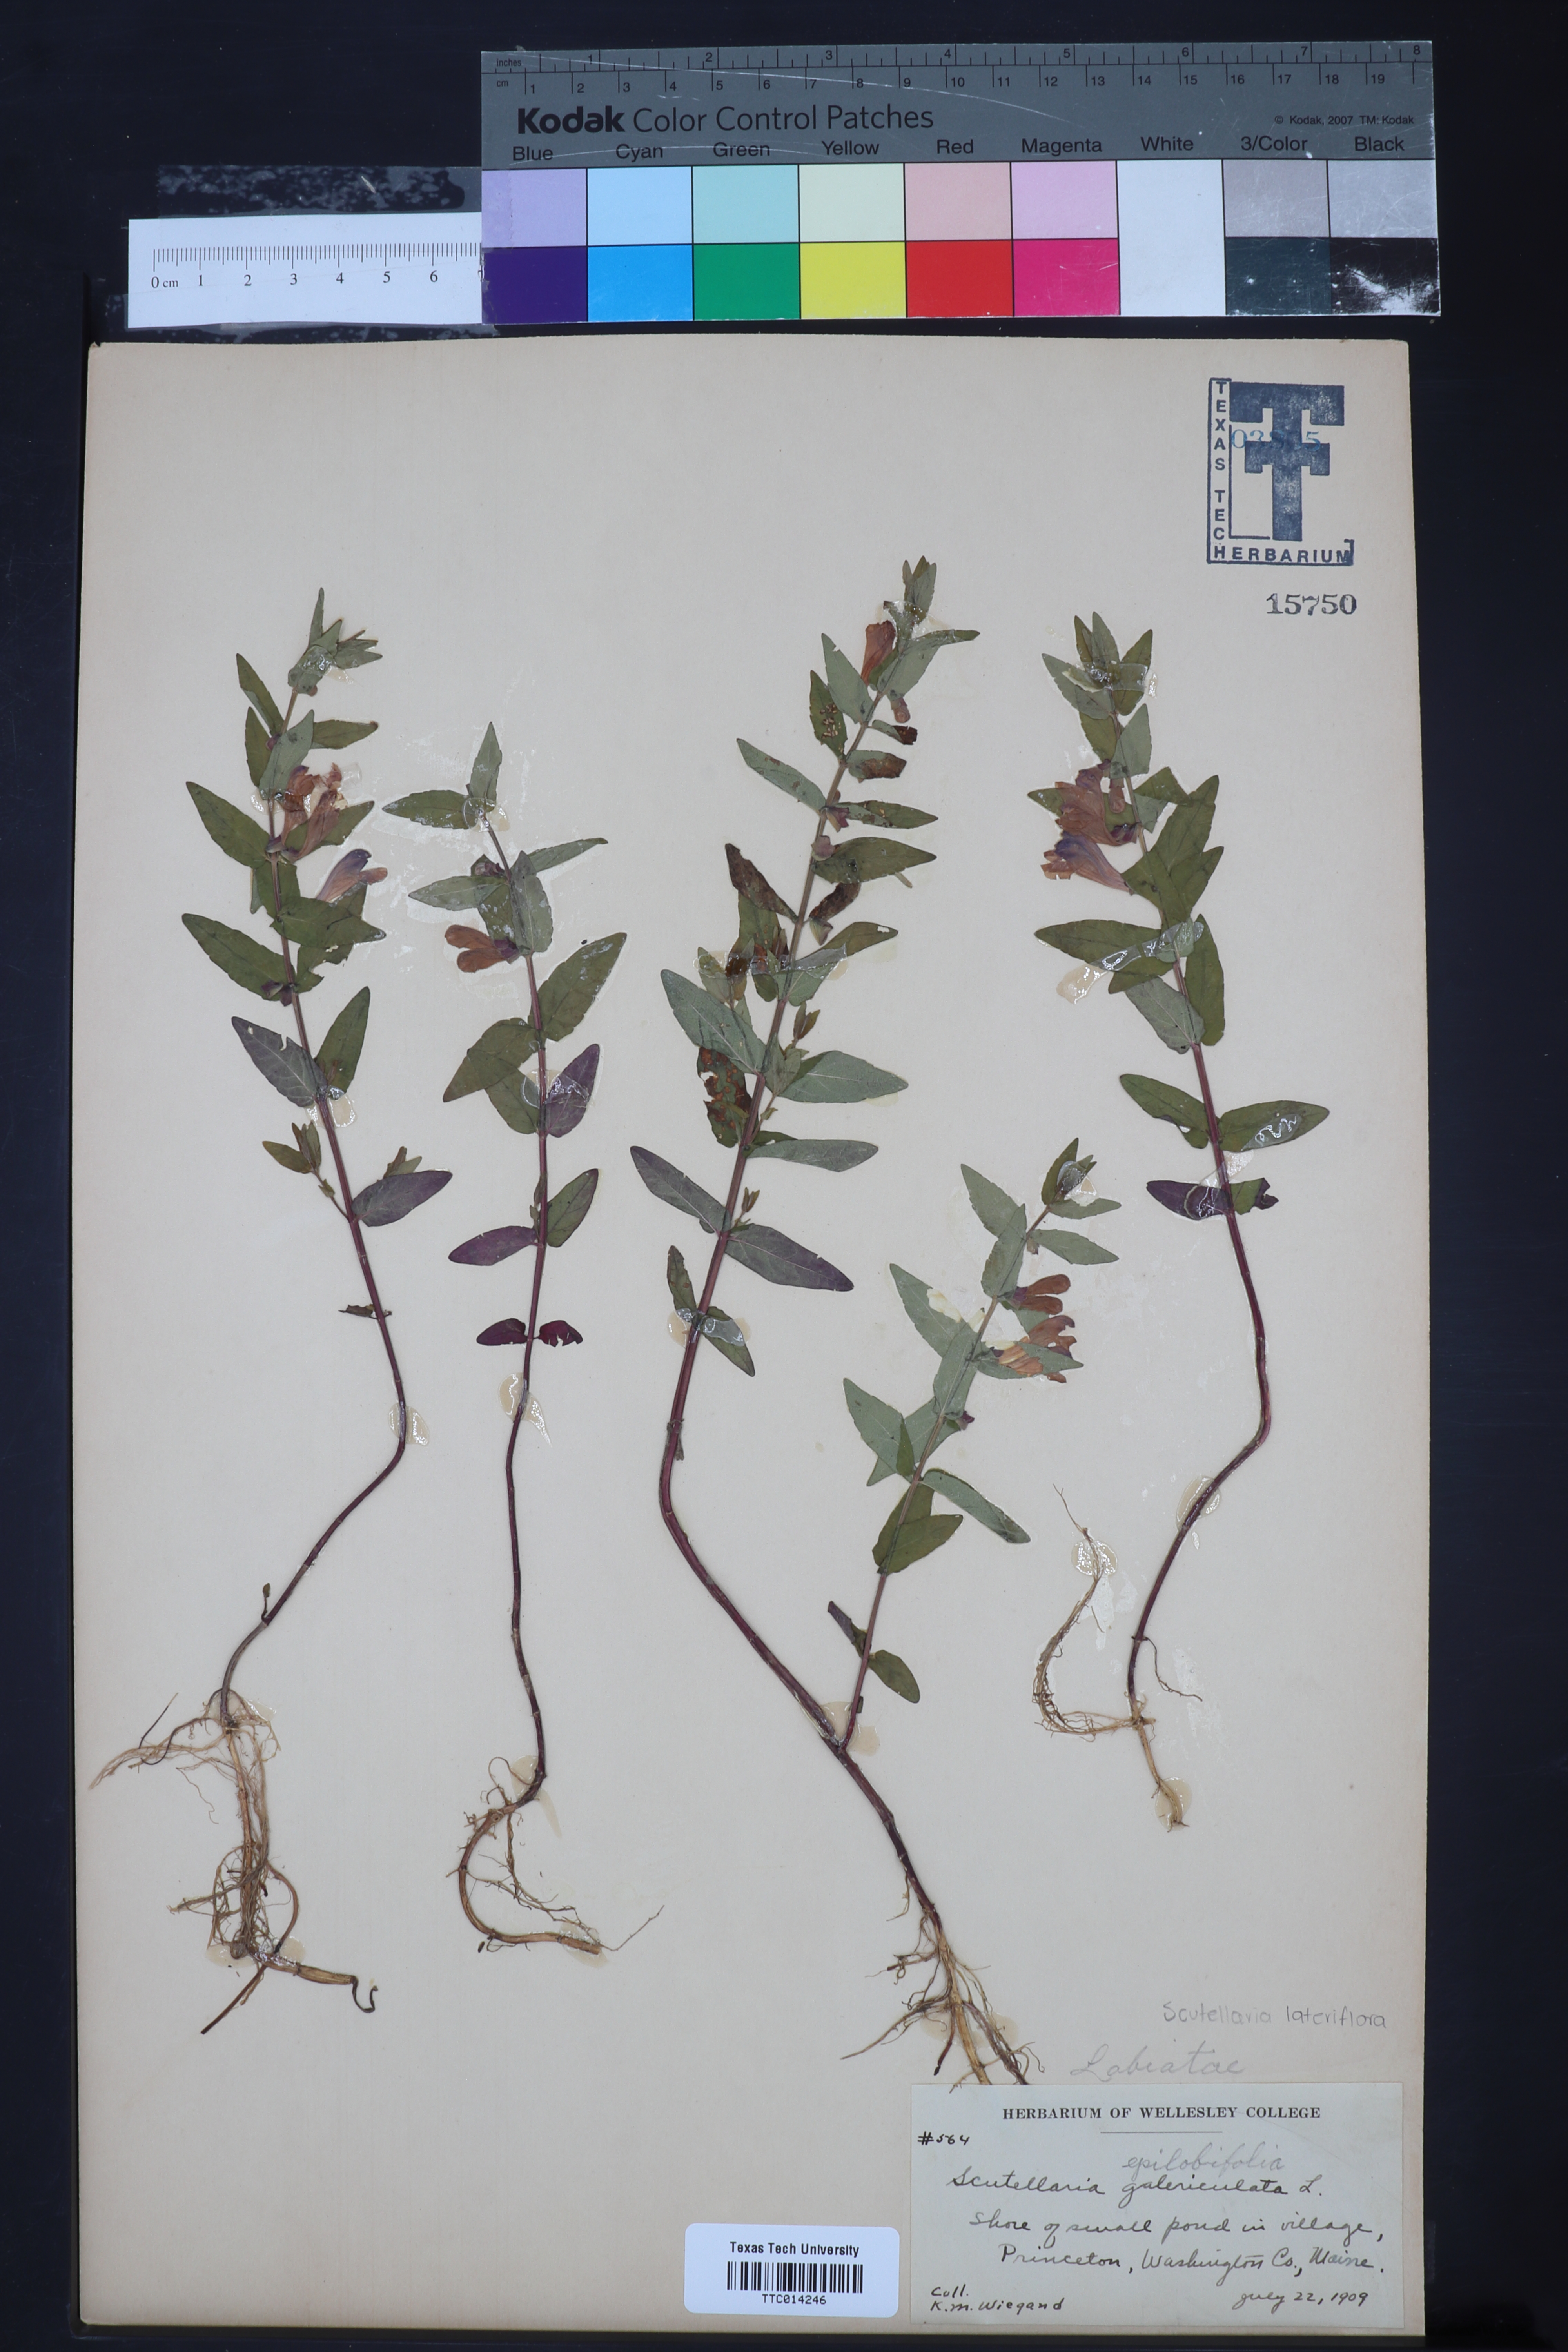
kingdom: Plantae
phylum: Tracheophyta
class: Magnoliopsida
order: Lamiales
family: Lamiaceae
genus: Scutellaria
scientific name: Scutellaria galericulata
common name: Skullcap
